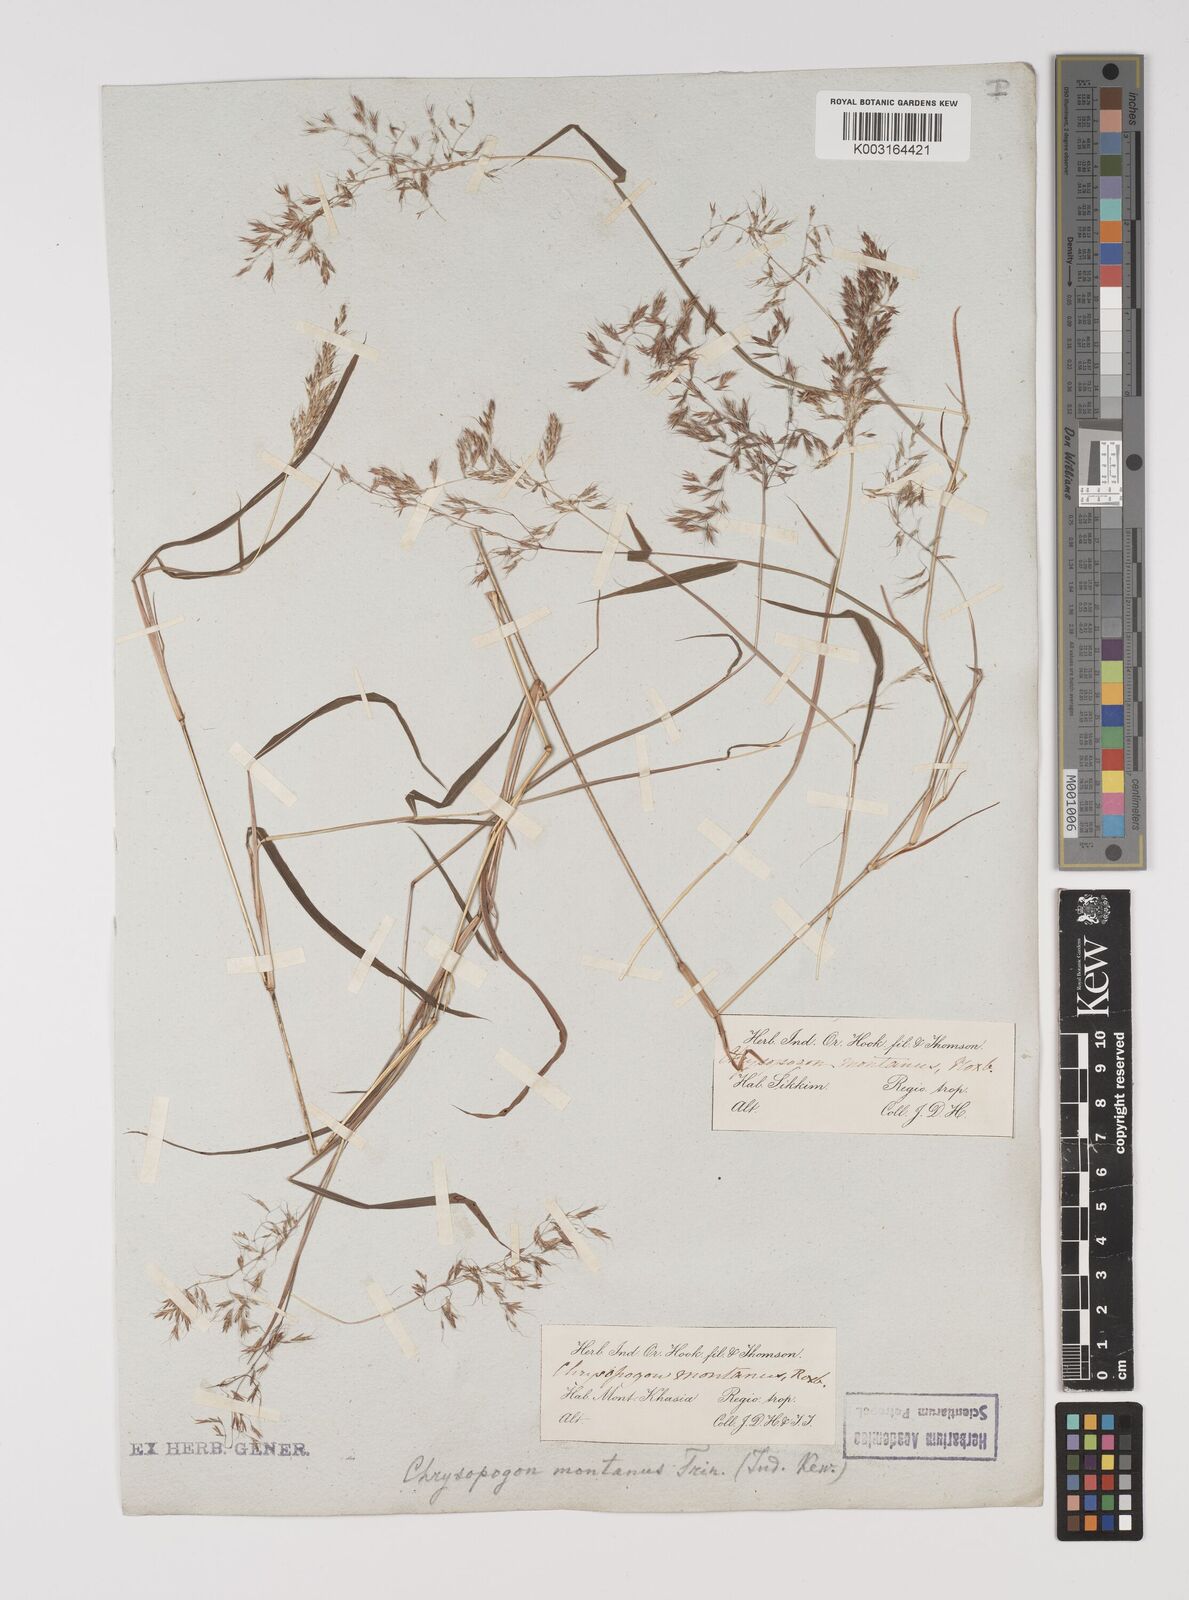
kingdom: Plantae
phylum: Tracheophyta
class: Liliopsida
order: Poales
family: Poaceae
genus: Capillipedium
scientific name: Capillipedium assimile
